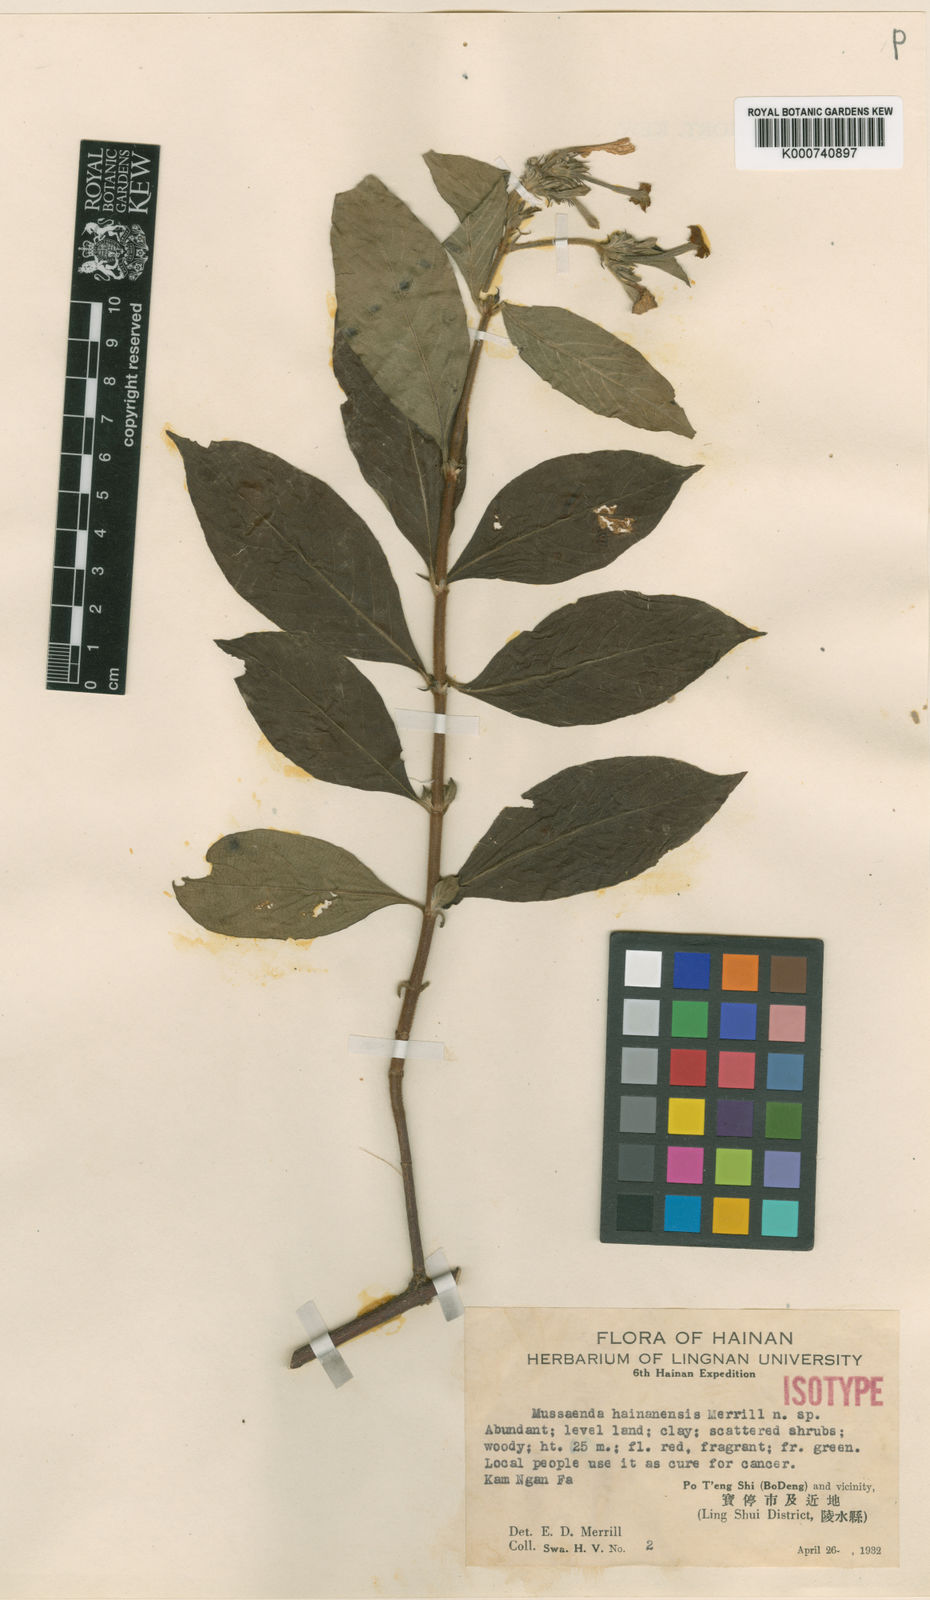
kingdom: Plantae
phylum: Tracheophyta
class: Magnoliopsida
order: Gentianales
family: Rubiaceae
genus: Mussaenda
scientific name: Mussaenda hainanensis
